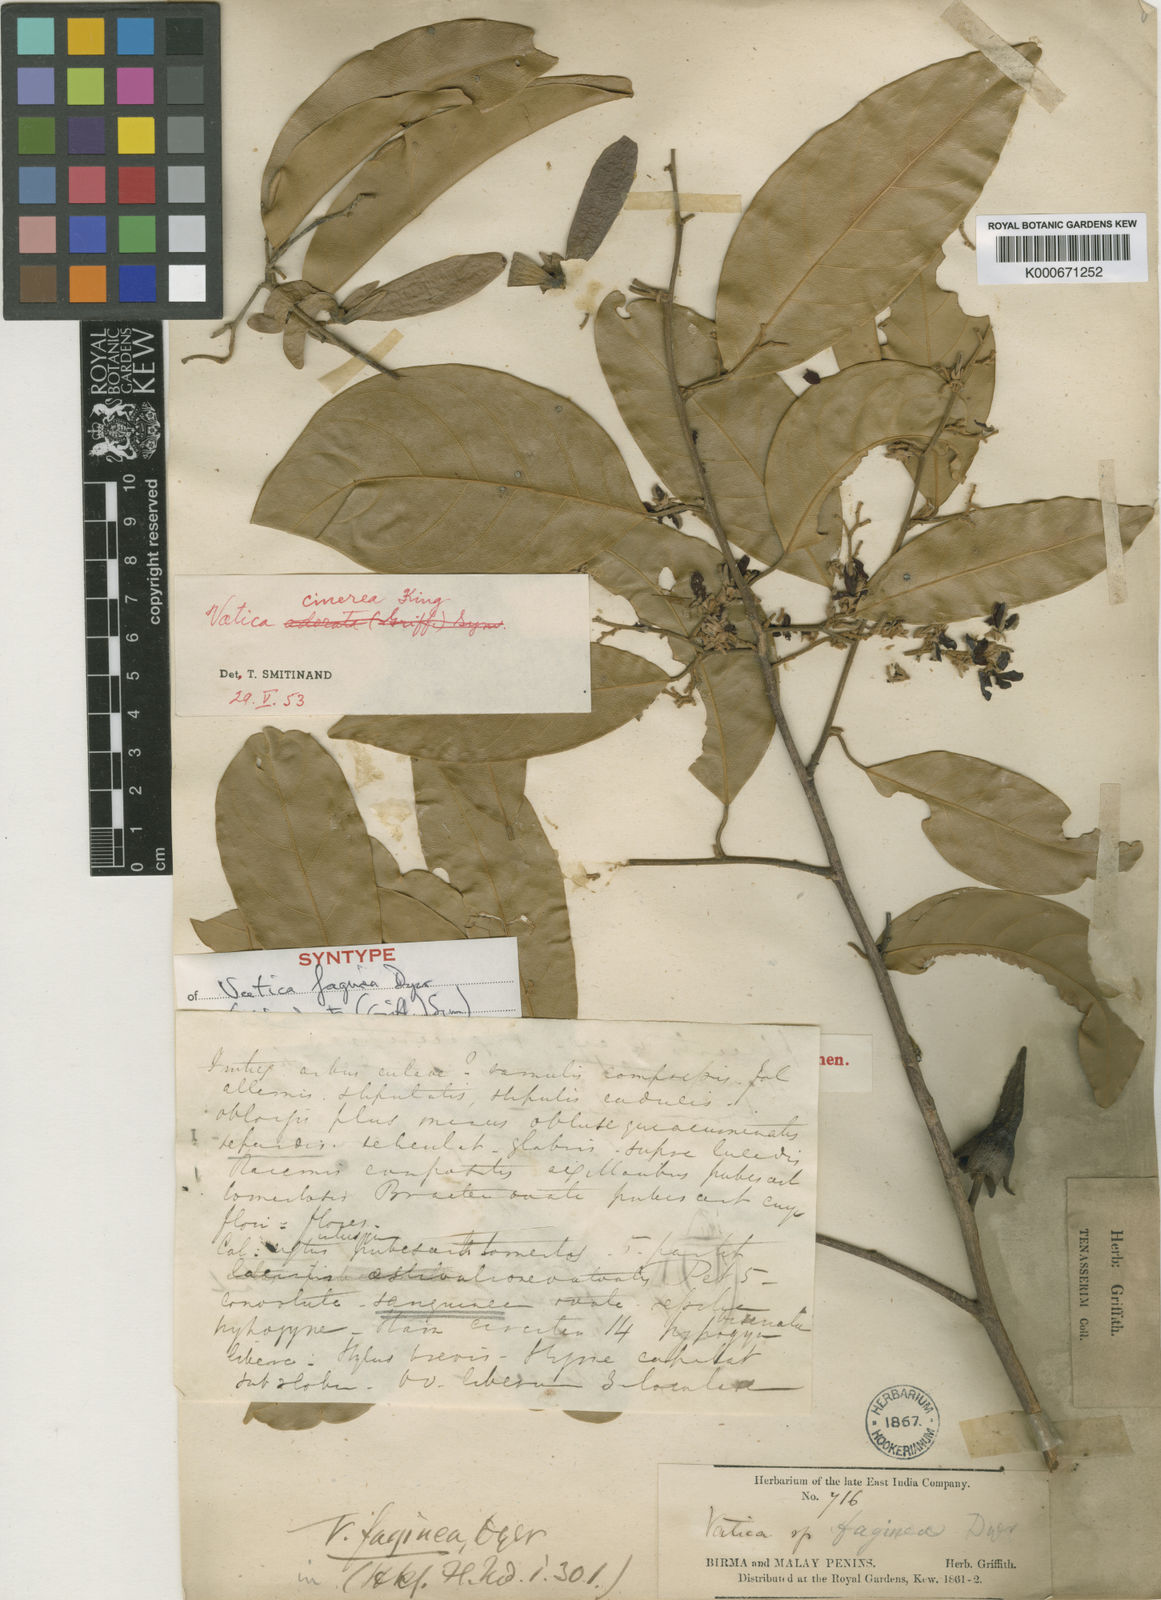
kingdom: Plantae
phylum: Tracheophyta
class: Magnoliopsida
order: Malvales
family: Dipterocarpaceae
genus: Vatica
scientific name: Vatica odorata
